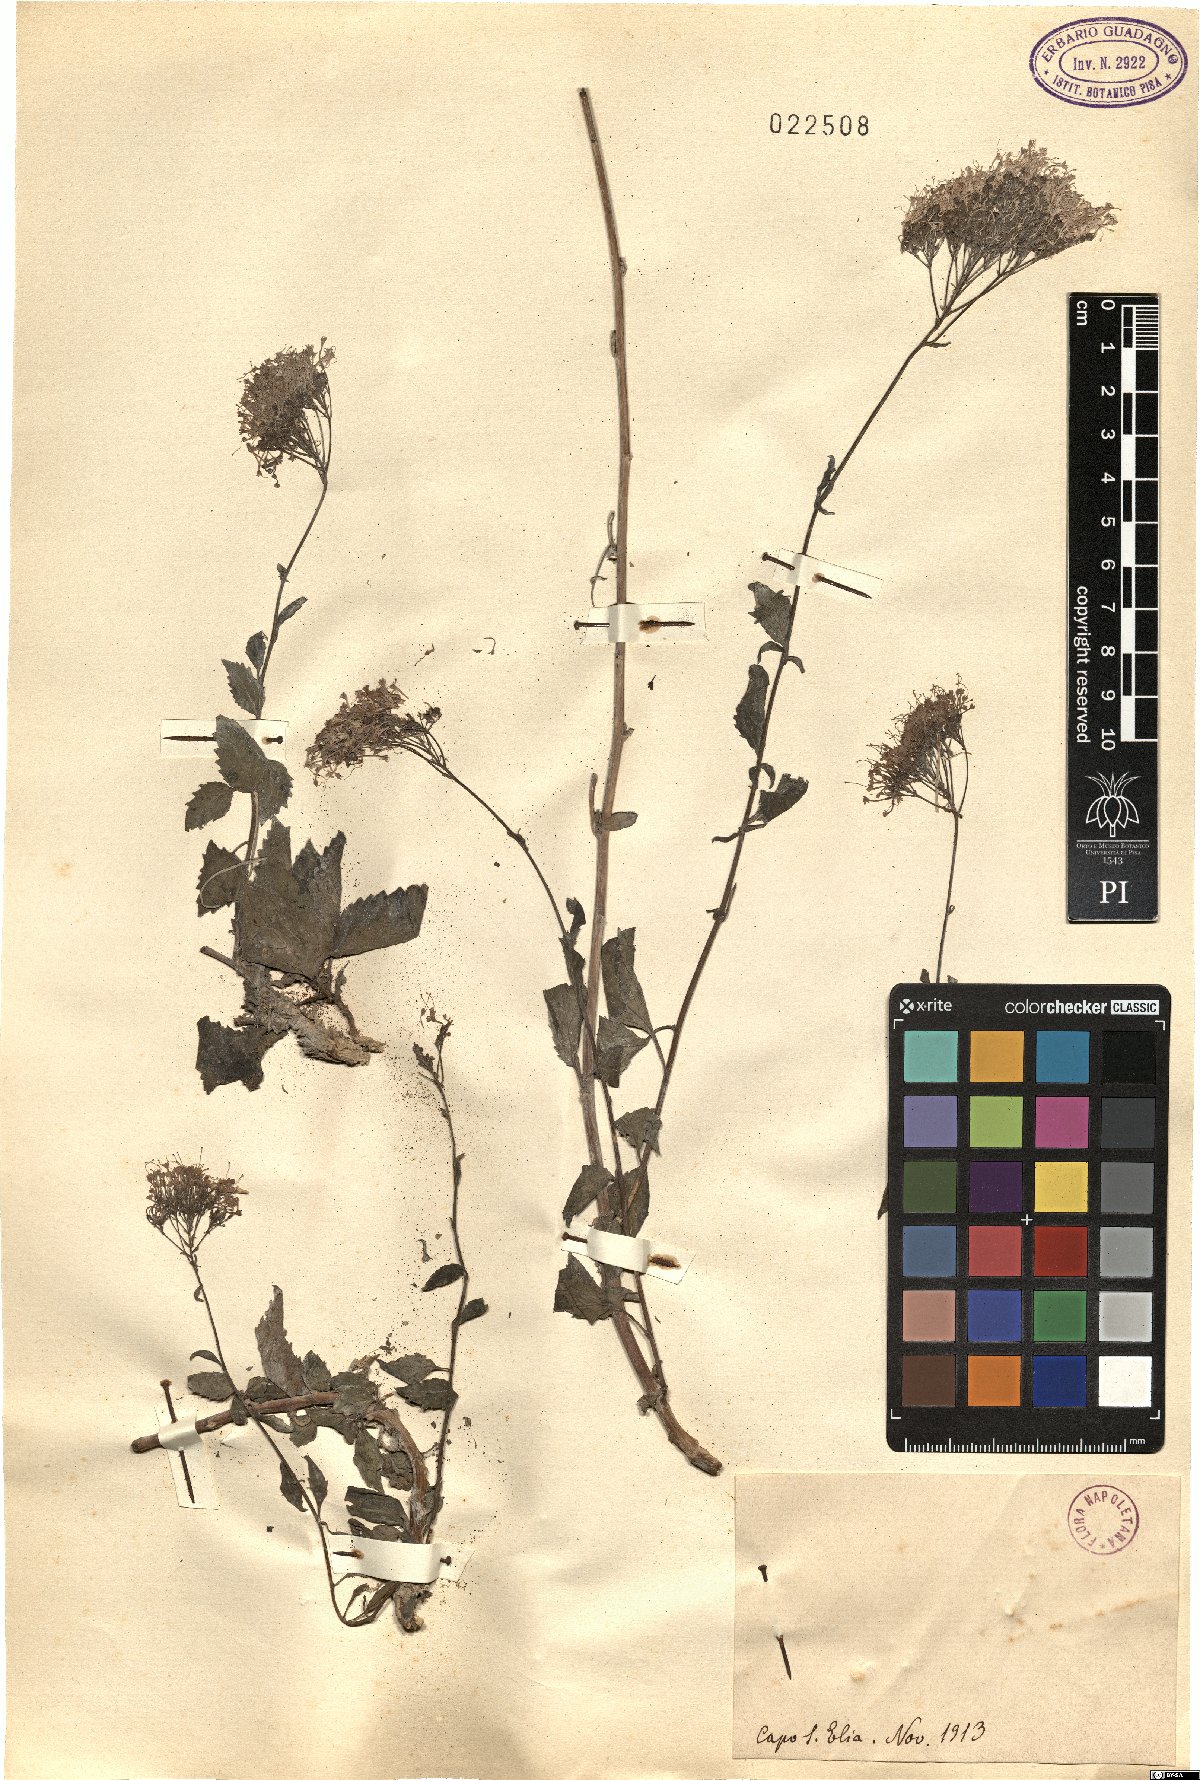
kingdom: Plantae
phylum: Tracheophyta
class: Magnoliopsida
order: Asterales
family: Campanulaceae
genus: Trachelium
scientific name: Trachelium
